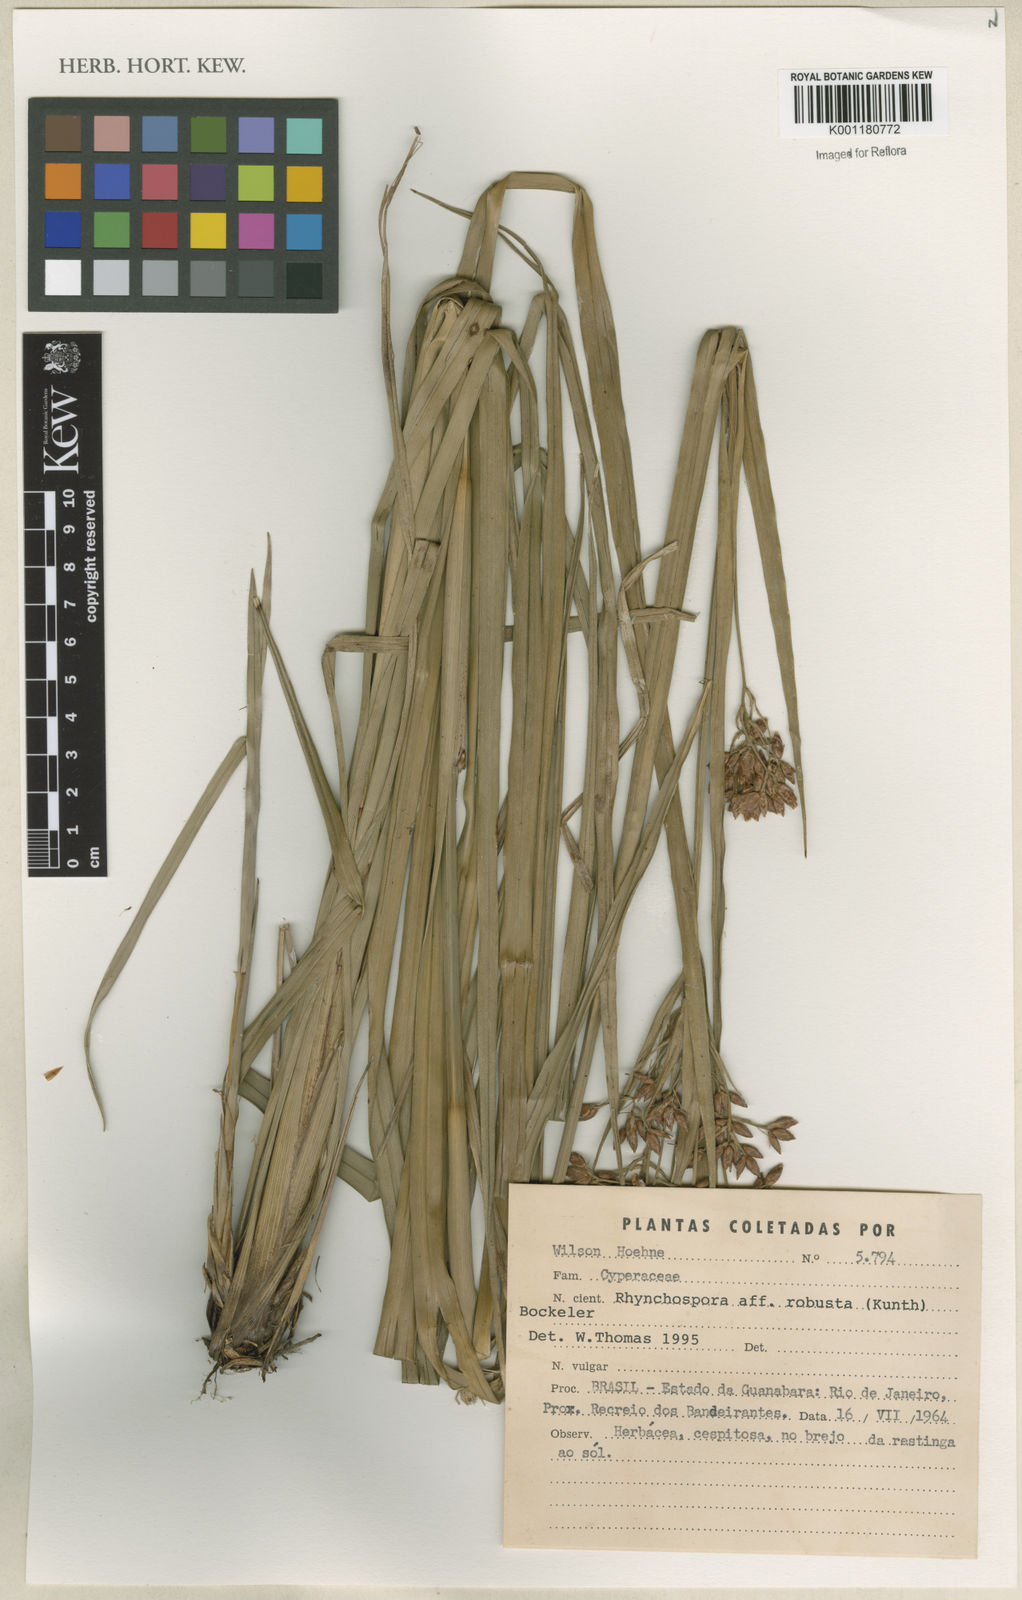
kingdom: Plantae
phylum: Tracheophyta
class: Liliopsida
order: Poales
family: Cyperaceae
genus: Rhynchospora
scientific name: Rhynchospora robusta
